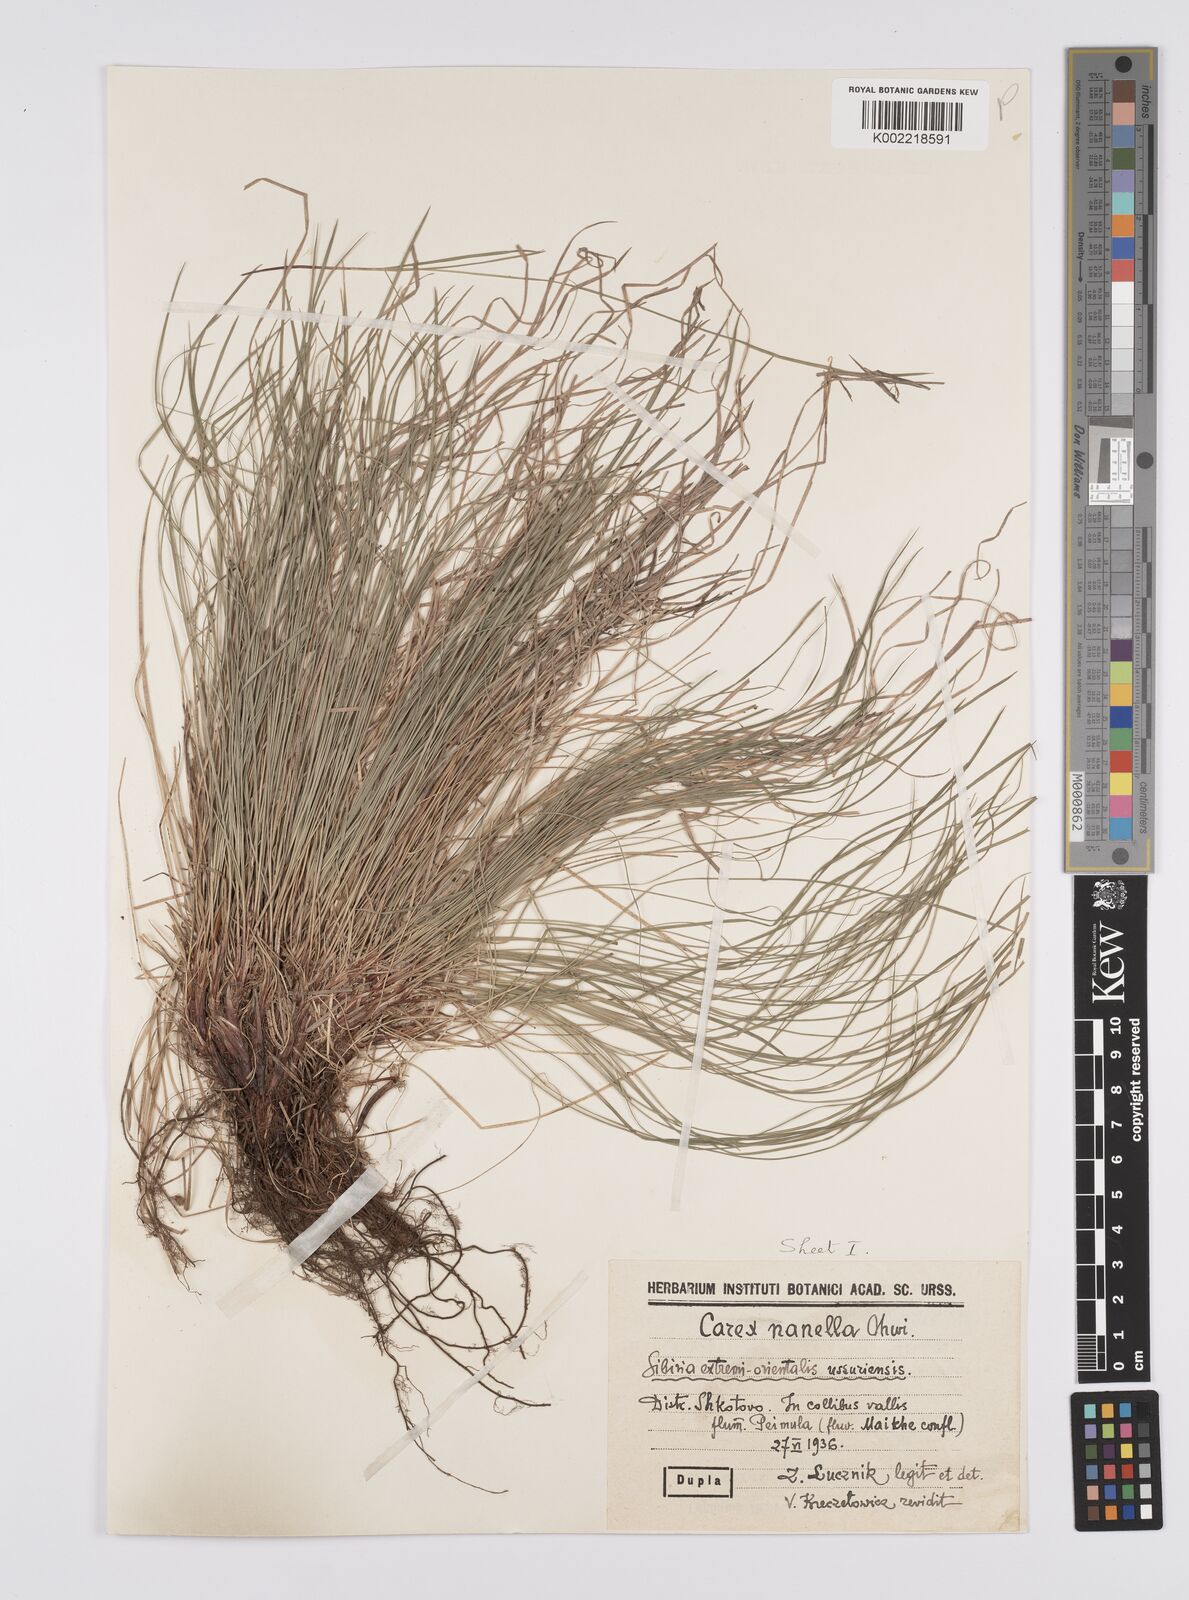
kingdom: Plantae
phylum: Tracheophyta
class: Liliopsida
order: Poales
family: Cyperaceae
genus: Carex
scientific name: Carex humilis
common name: Dwarf sedge
